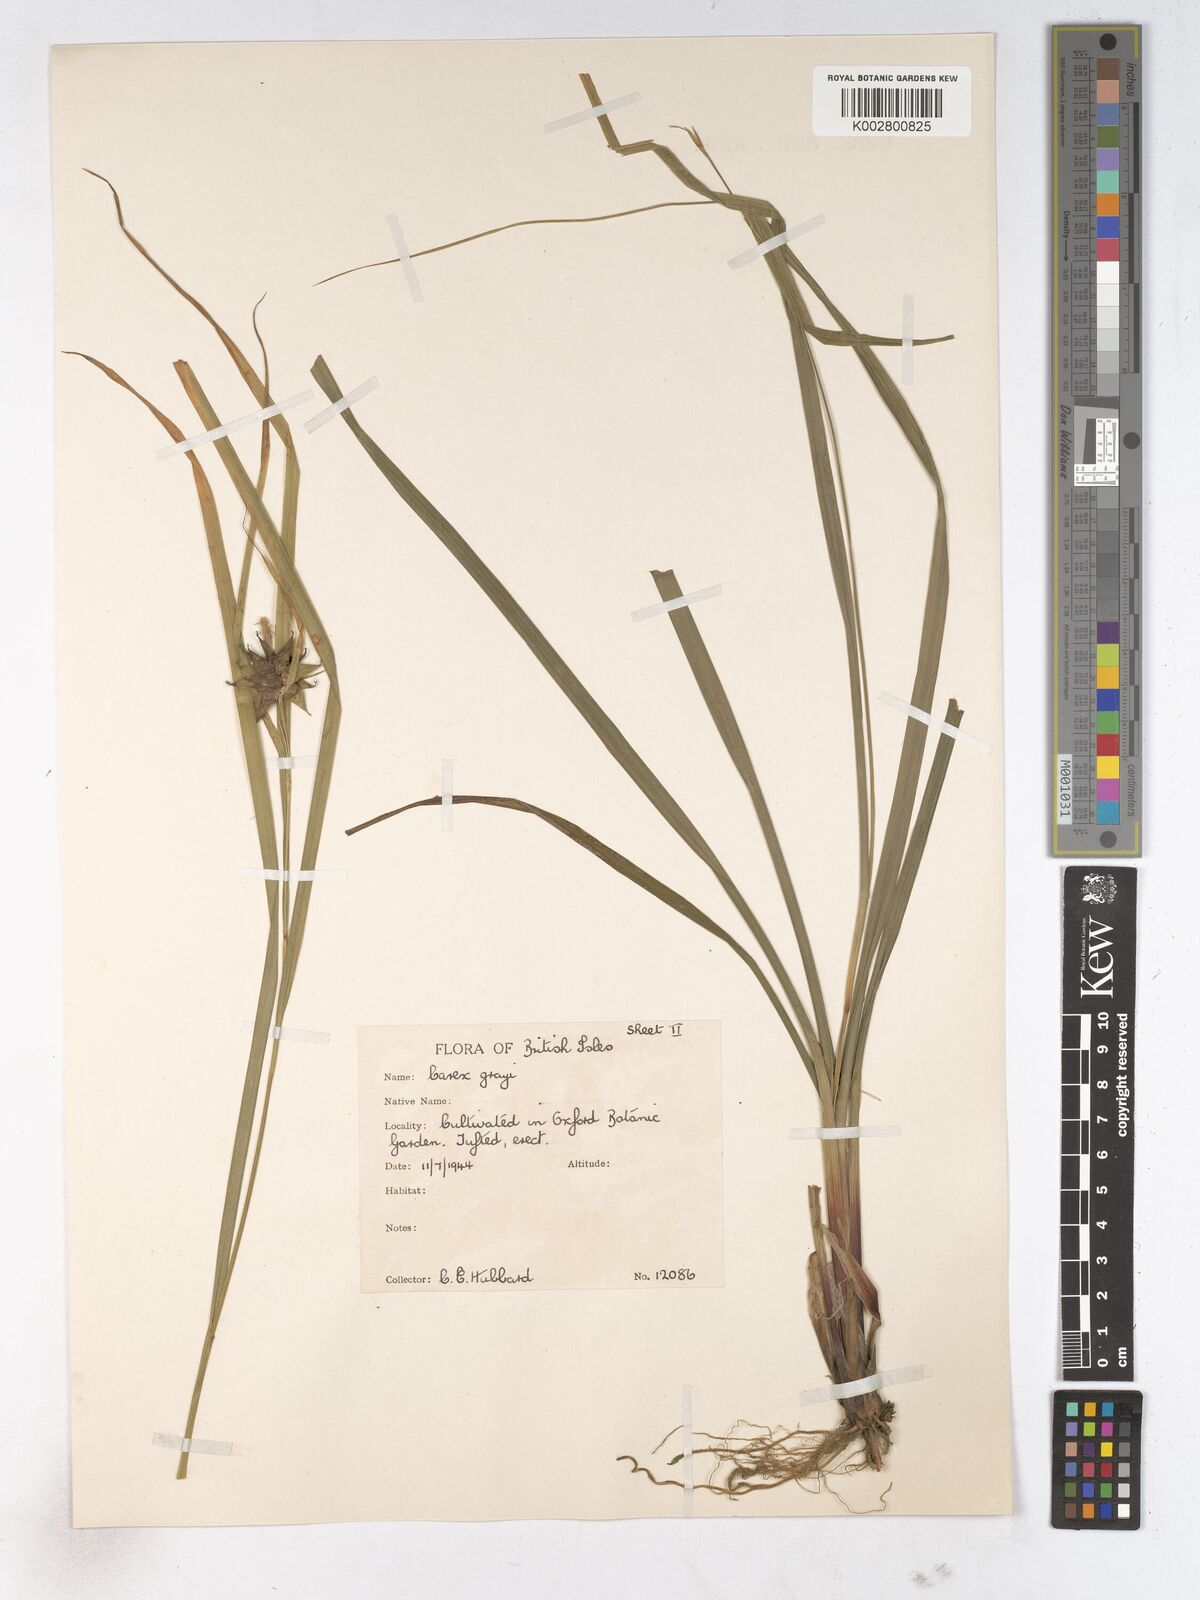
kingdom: Plantae
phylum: Tracheophyta
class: Liliopsida
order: Poales
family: Cyperaceae
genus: Carex
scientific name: Carex grayi
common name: Asa gray's sedge
